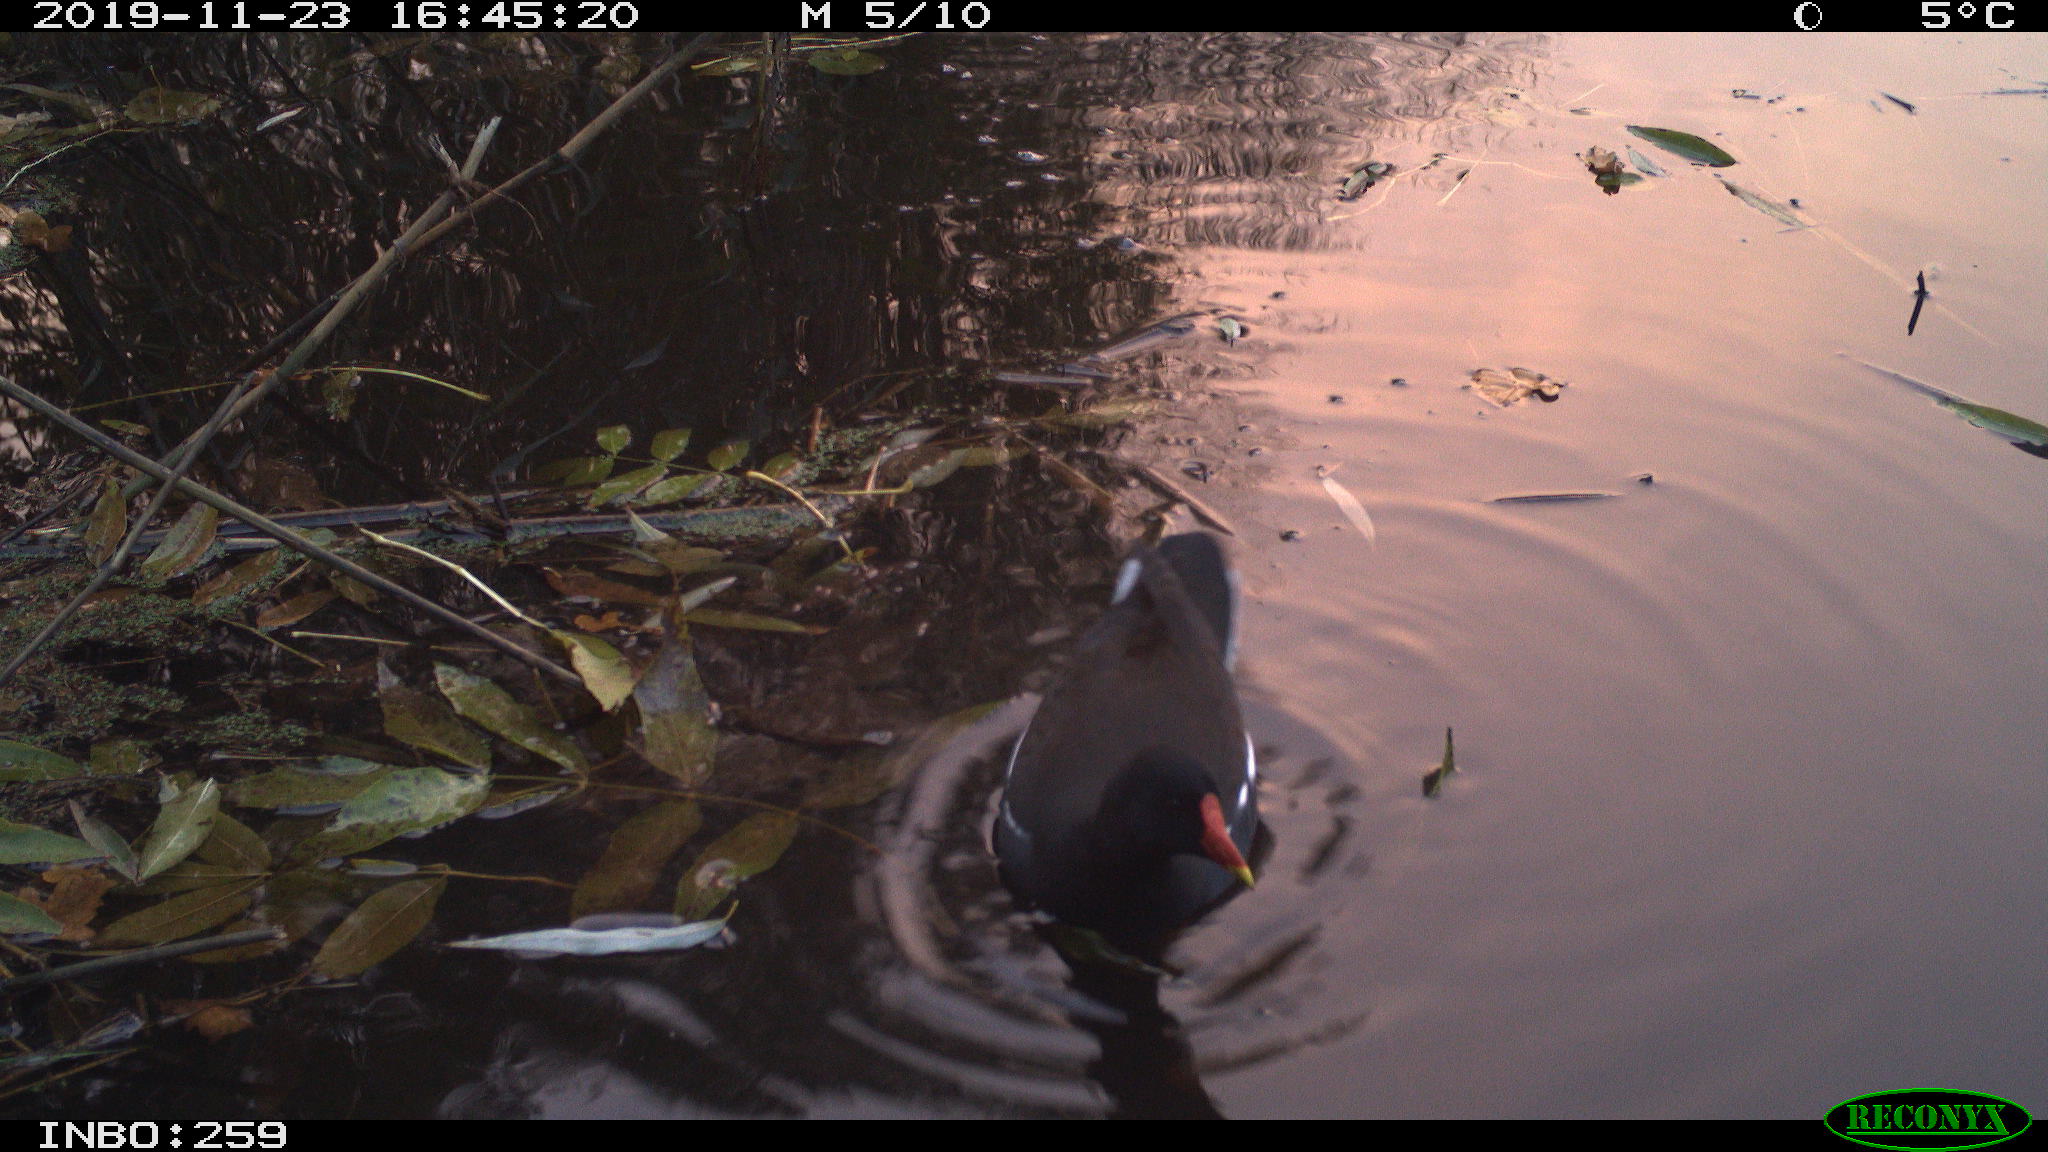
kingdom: Animalia
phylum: Chordata
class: Aves
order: Gruiformes
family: Rallidae
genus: Gallinula
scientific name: Gallinula chloropus
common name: Common moorhen
